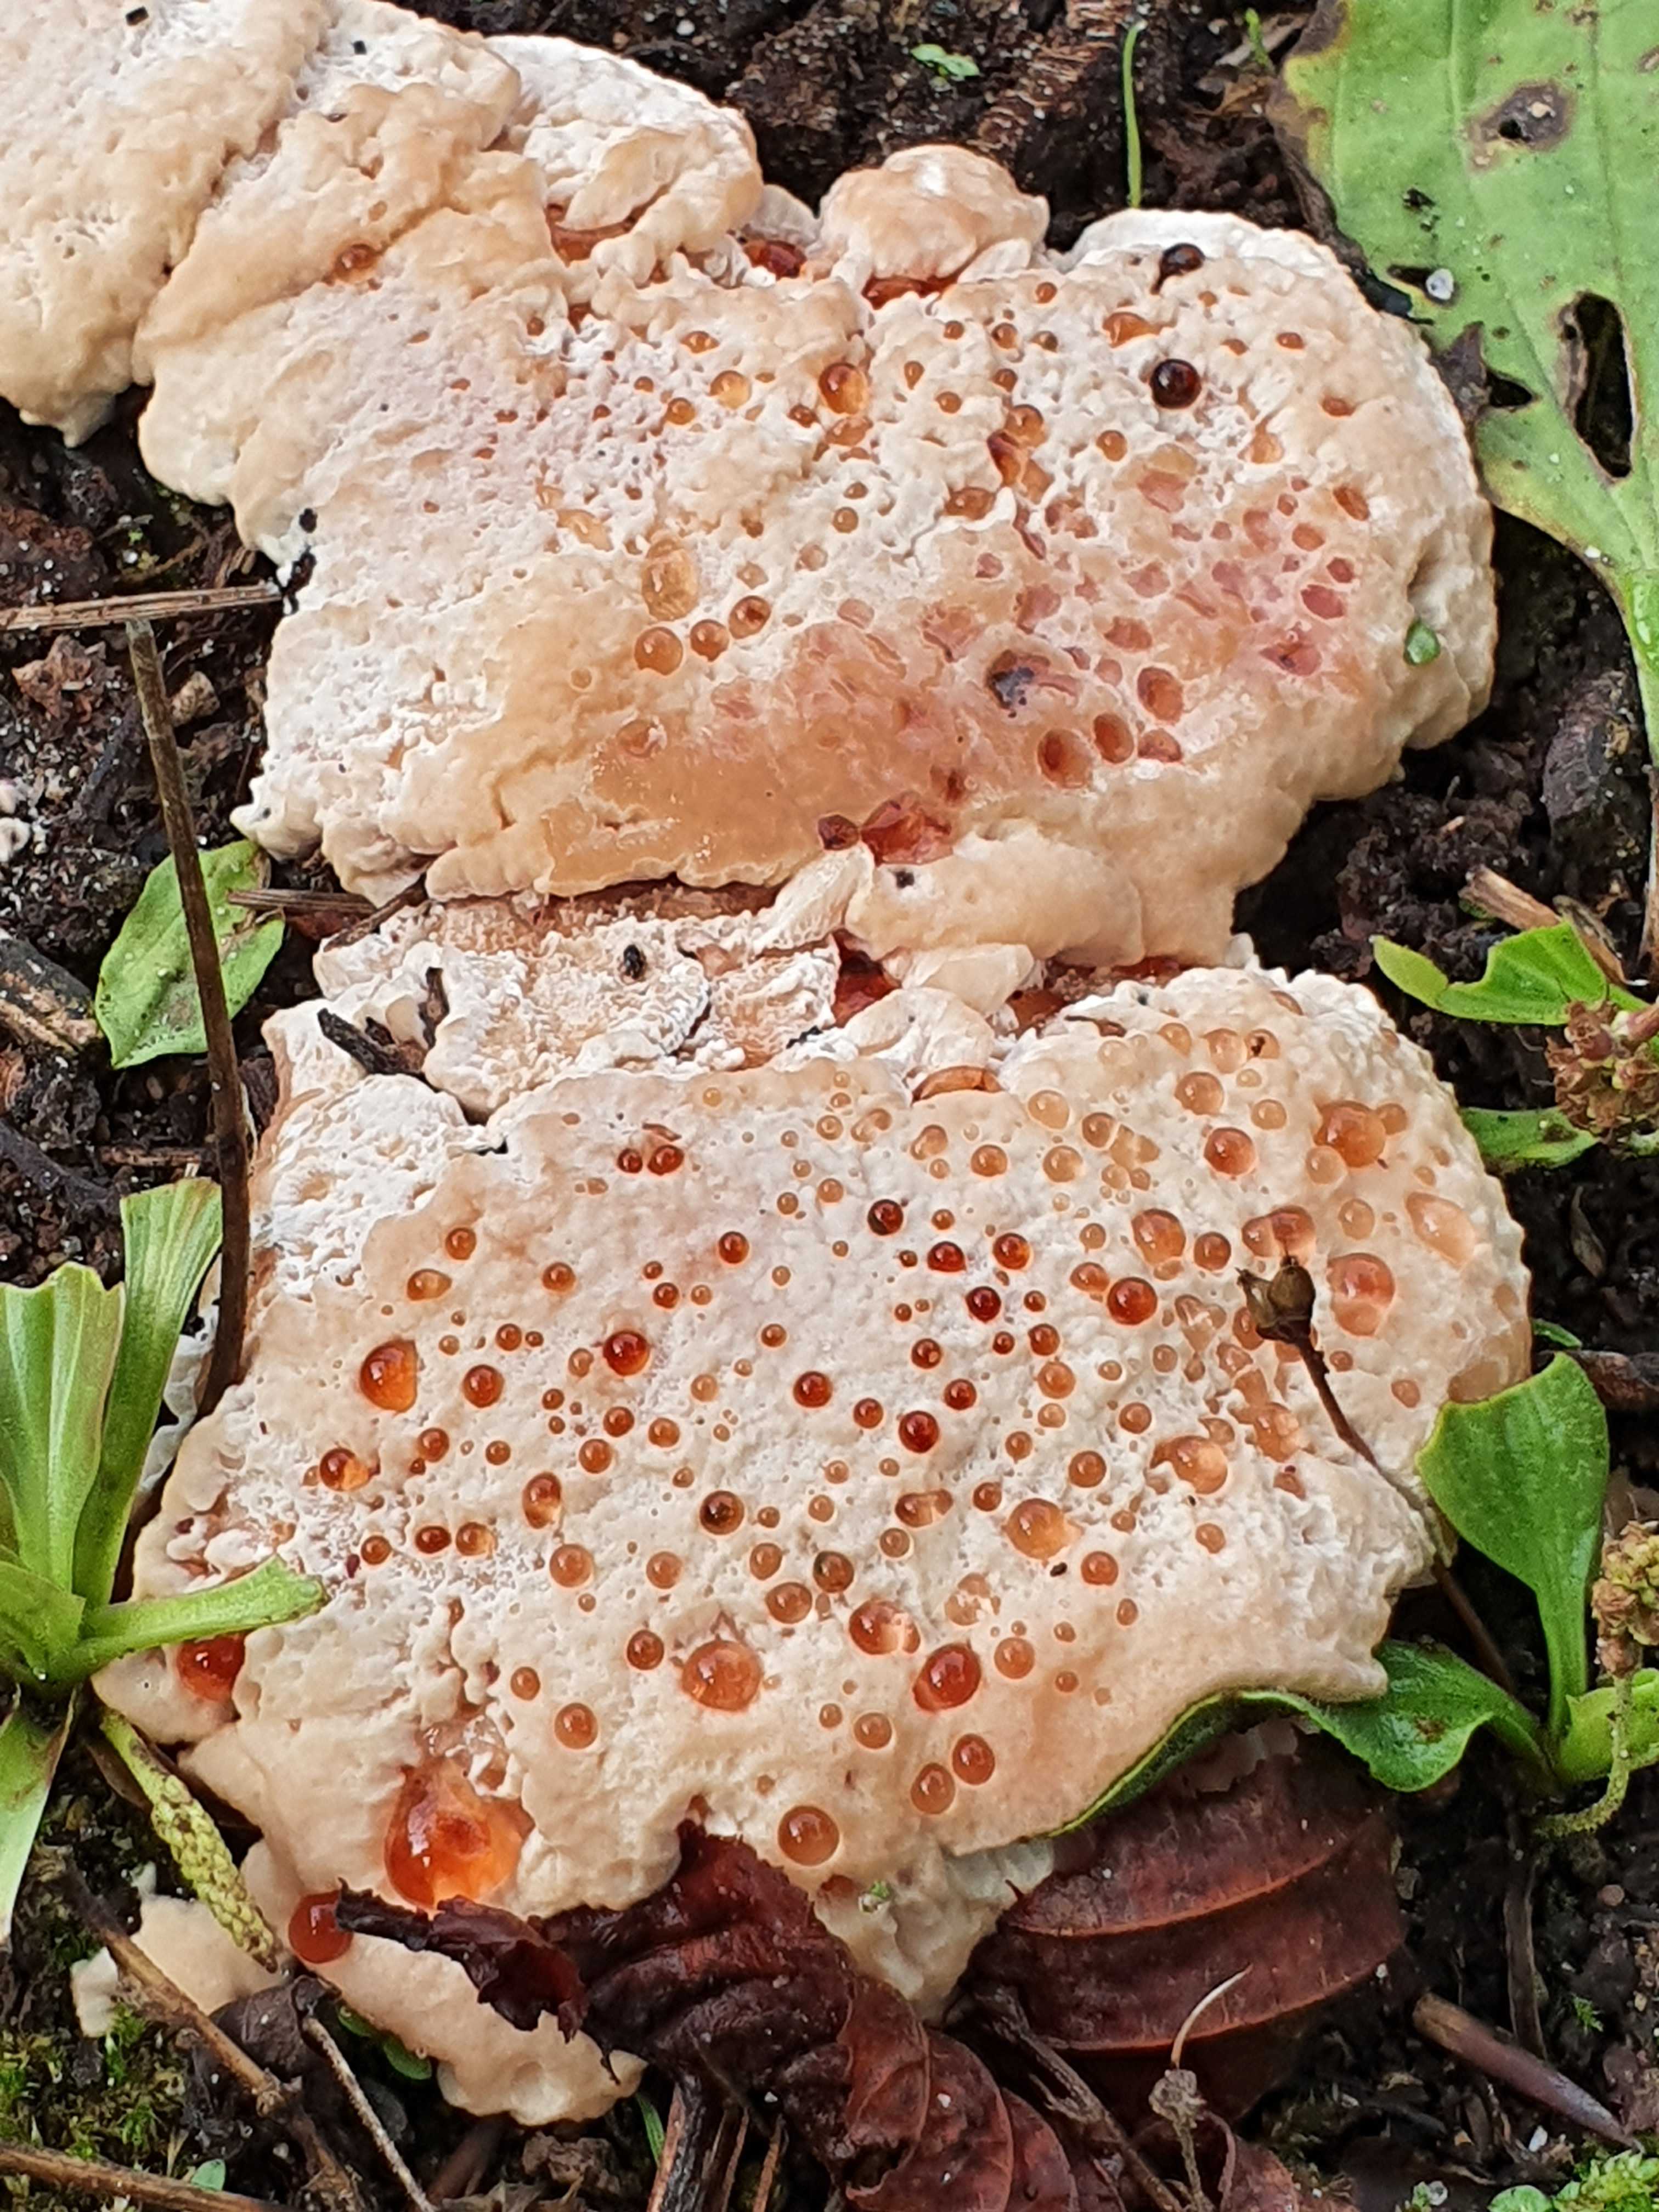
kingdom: Fungi
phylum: Basidiomycota
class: Agaricomycetes
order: Polyporales
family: Podoscyphaceae
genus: Abortiporus
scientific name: Abortiporus biennis
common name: rødmende pjalteporesvamp
